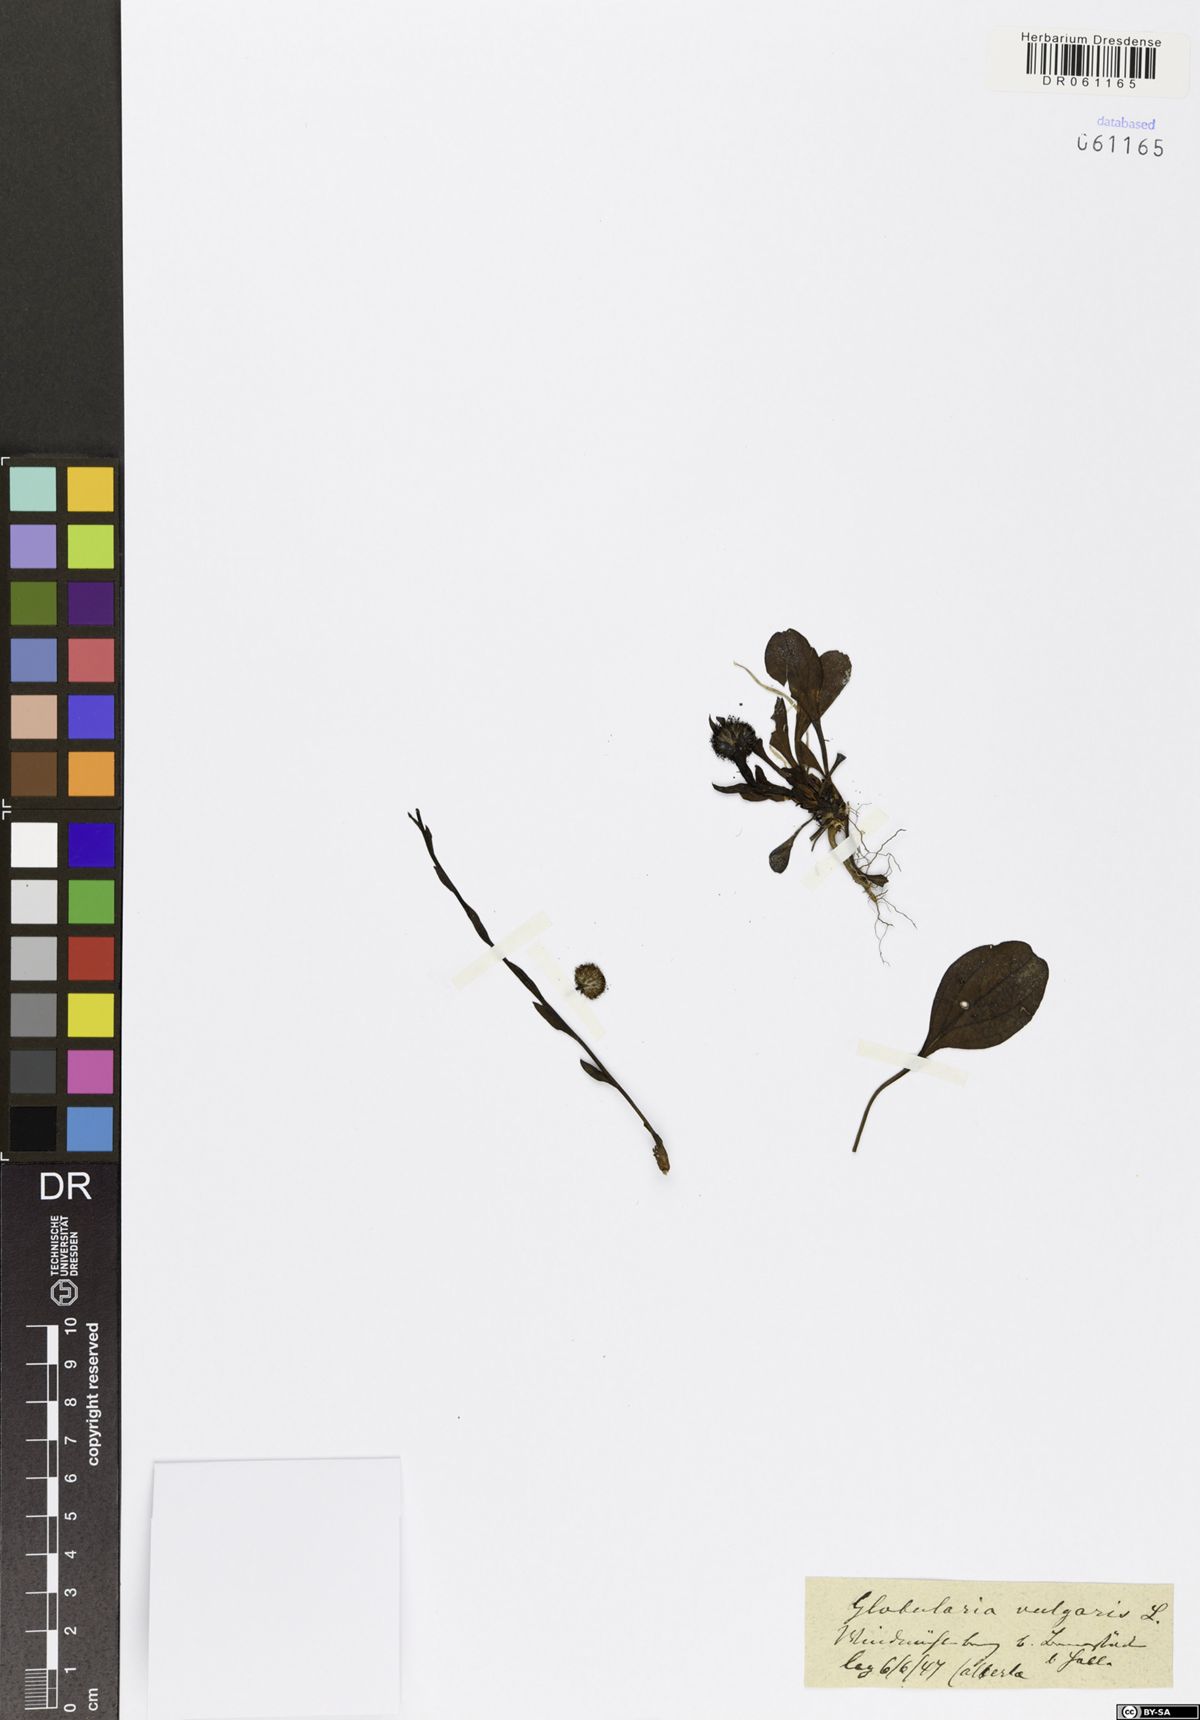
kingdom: Plantae
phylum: Tracheophyta
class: Magnoliopsida
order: Lamiales
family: Plantaginaceae
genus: Globularia
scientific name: Globularia vulgaris
